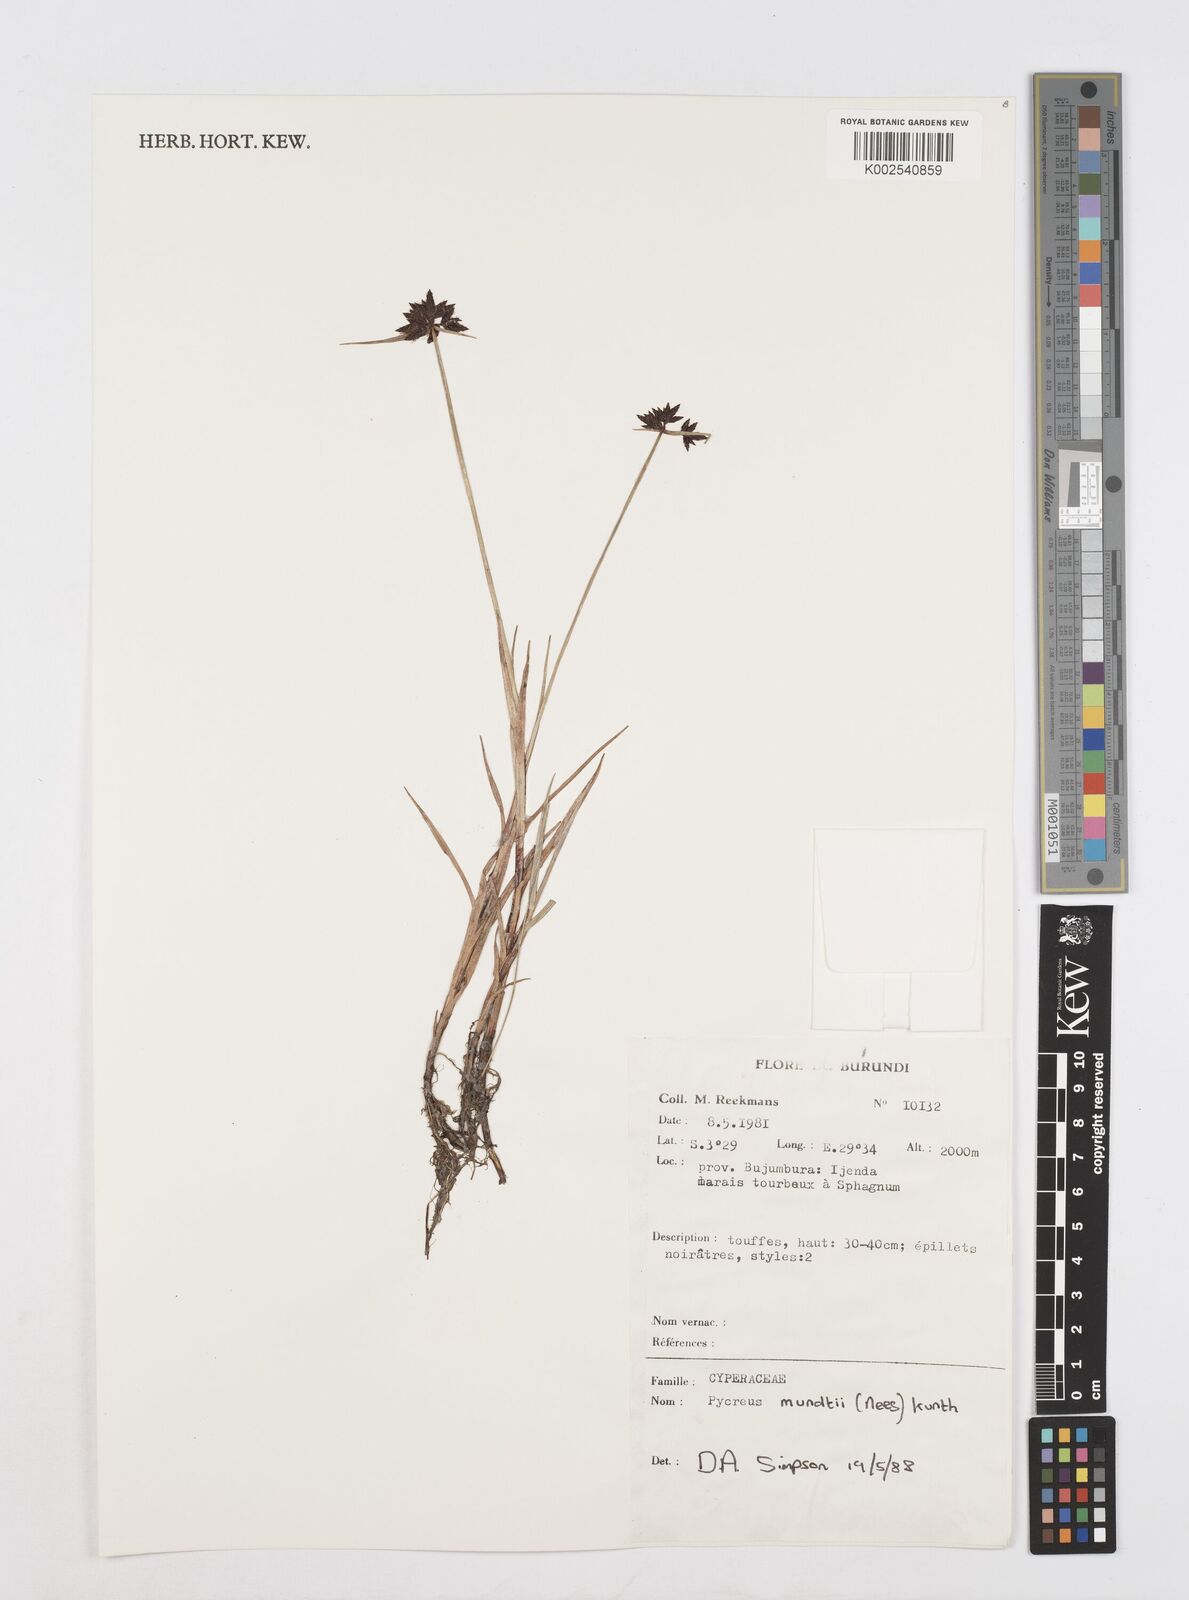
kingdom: Plantae
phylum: Tracheophyta
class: Liliopsida
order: Poales
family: Cyperaceae
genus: Cyperus
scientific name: Cyperus mundii
